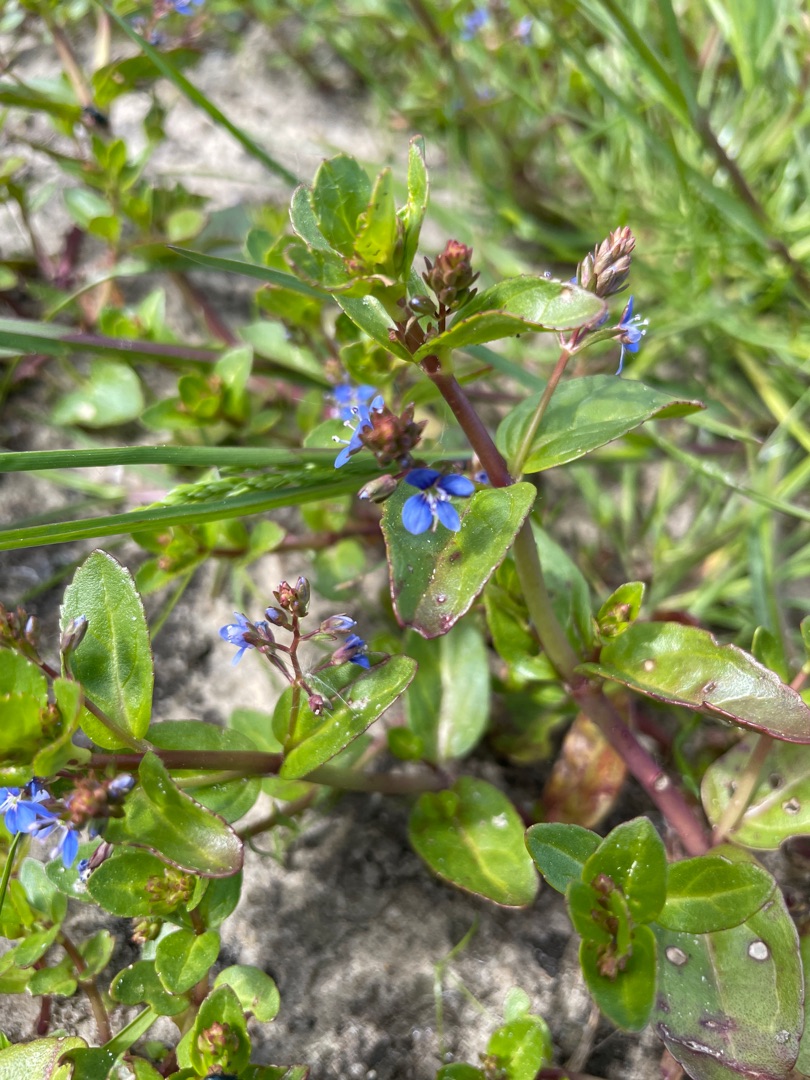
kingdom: Plantae
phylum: Tracheophyta
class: Magnoliopsida
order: Lamiales
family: Plantaginaceae
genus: Veronica
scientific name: Veronica beccabunga
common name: Tykbladet ærenpris
